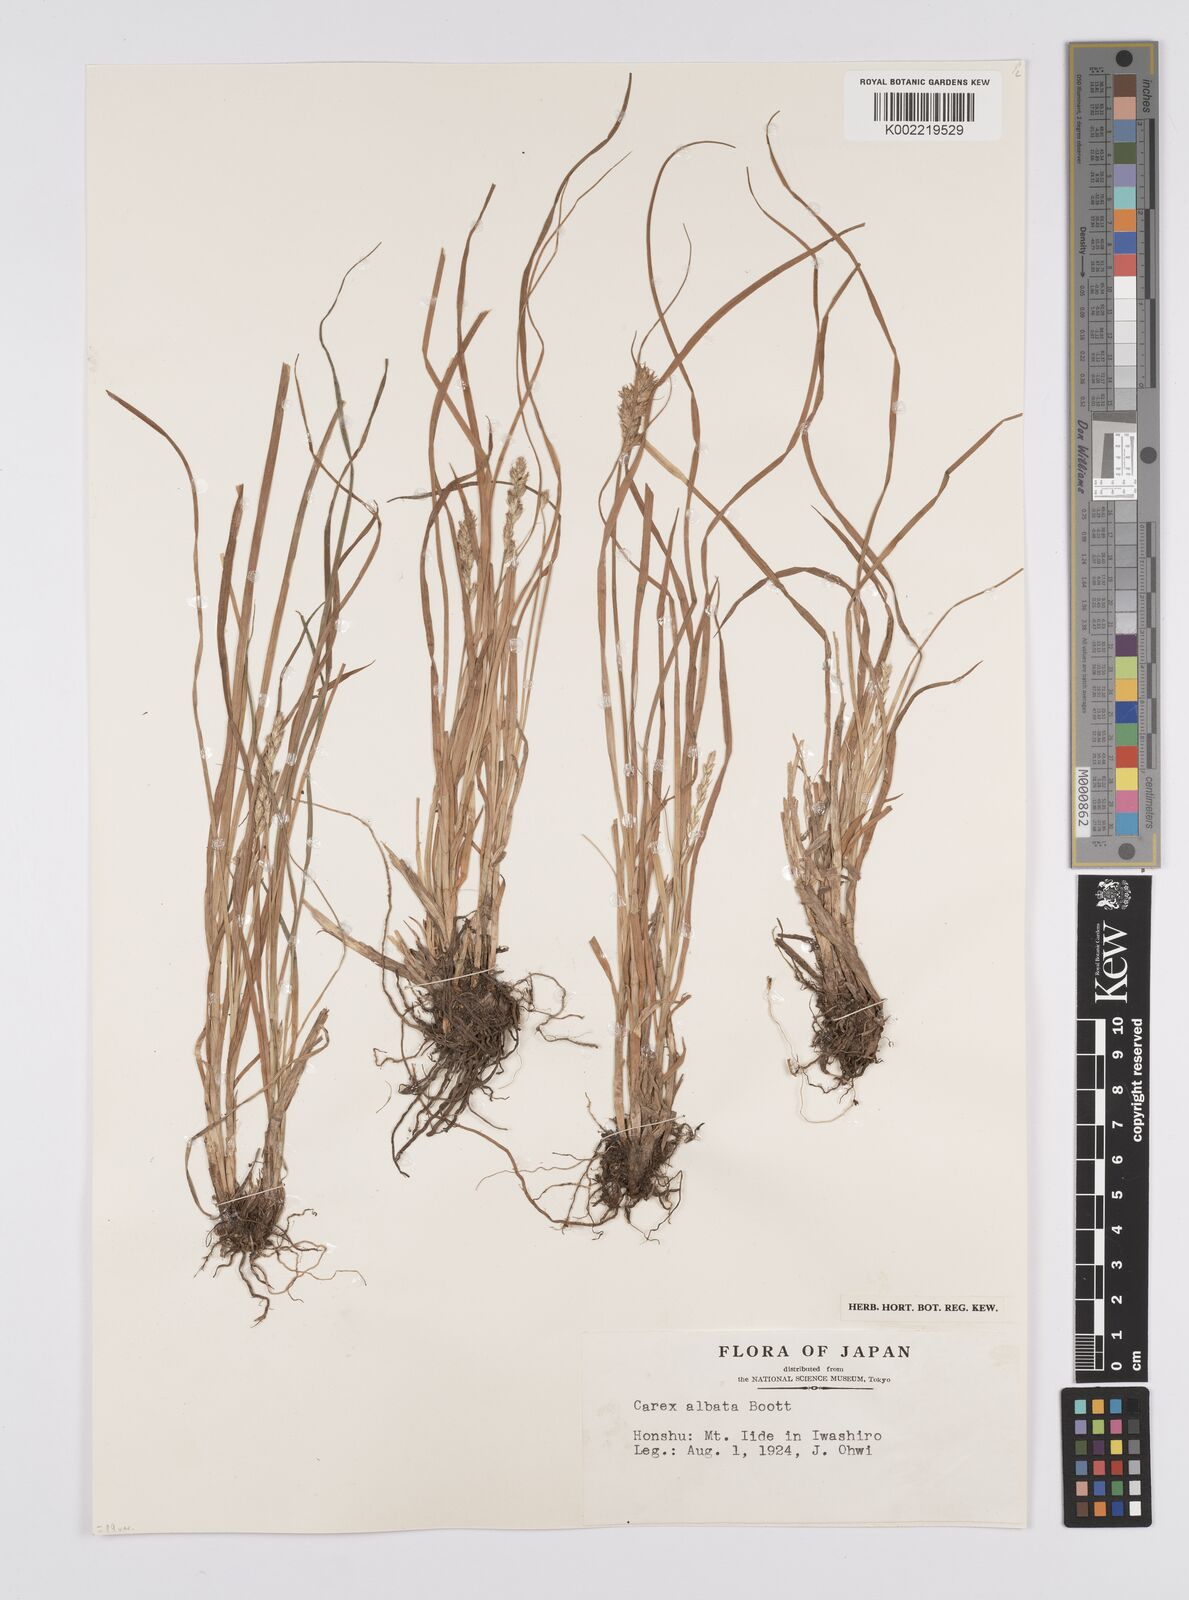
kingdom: Plantae
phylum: Tracheophyta
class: Liliopsida
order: Poales
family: Cyperaceae
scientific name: Cyperaceae
